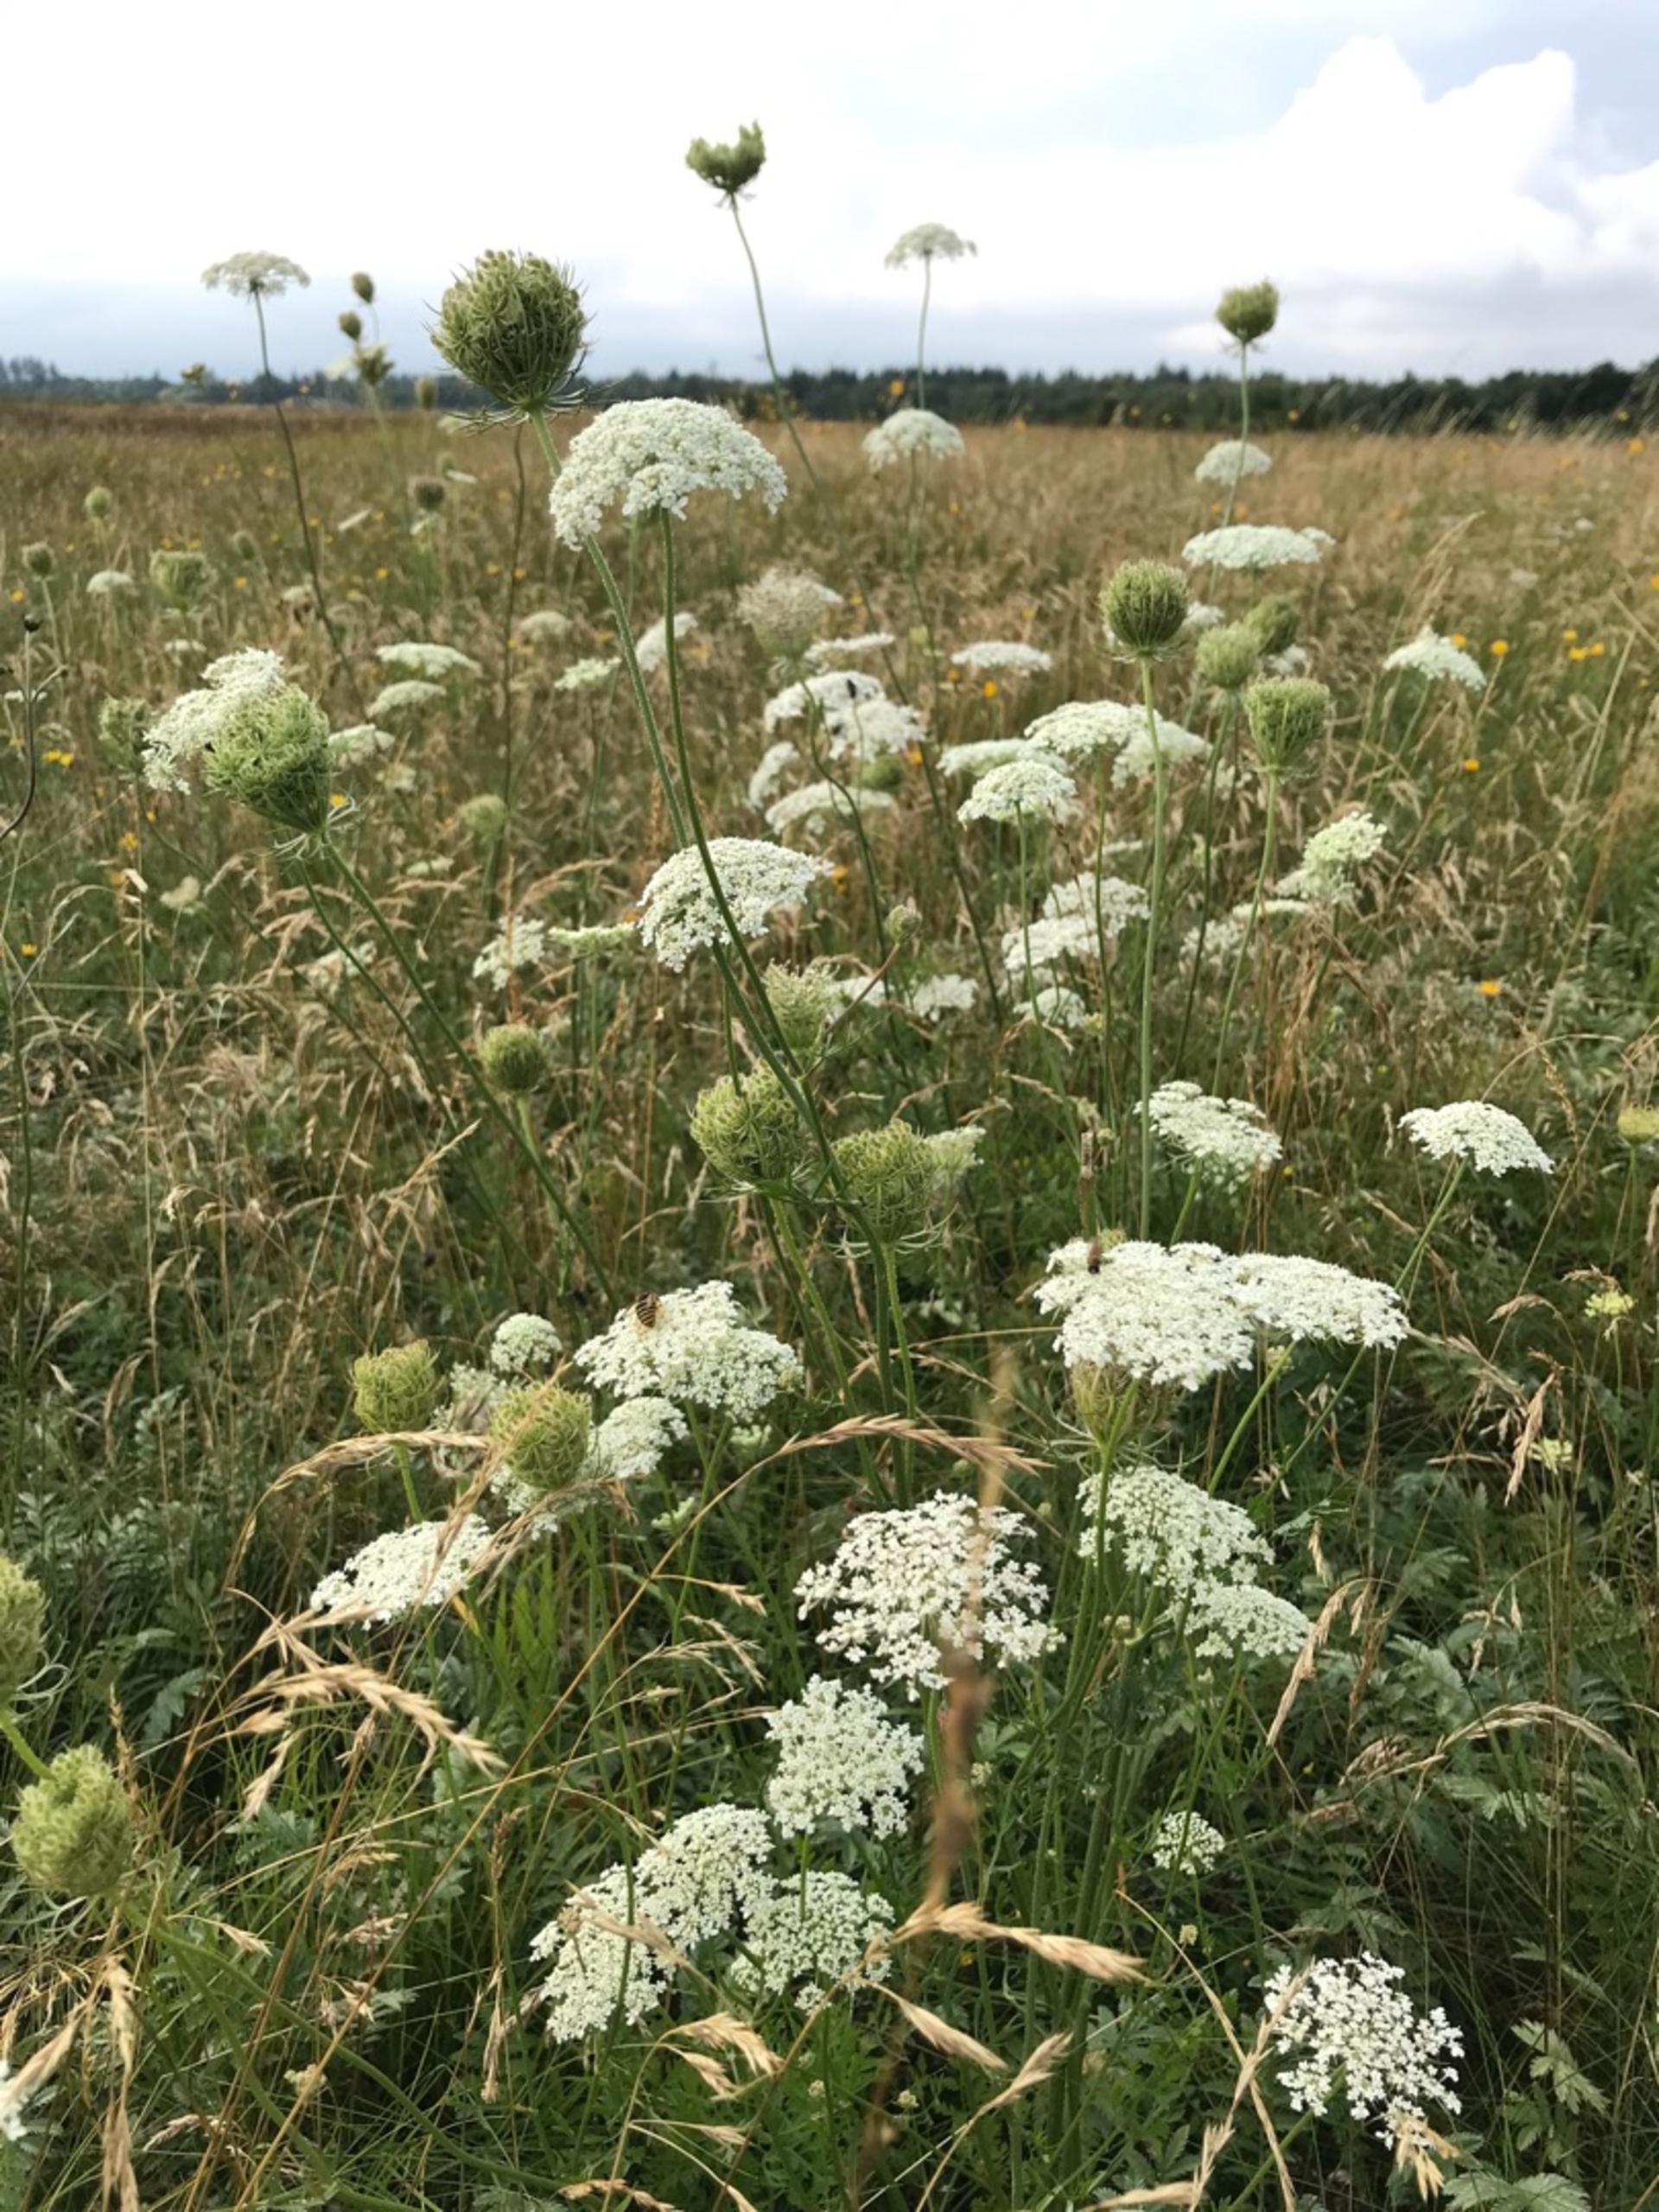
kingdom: Plantae
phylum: Tracheophyta
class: Magnoliopsida
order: Apiales
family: Apiaceae
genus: Daucus
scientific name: Daucus carota
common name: Vild gulerod
